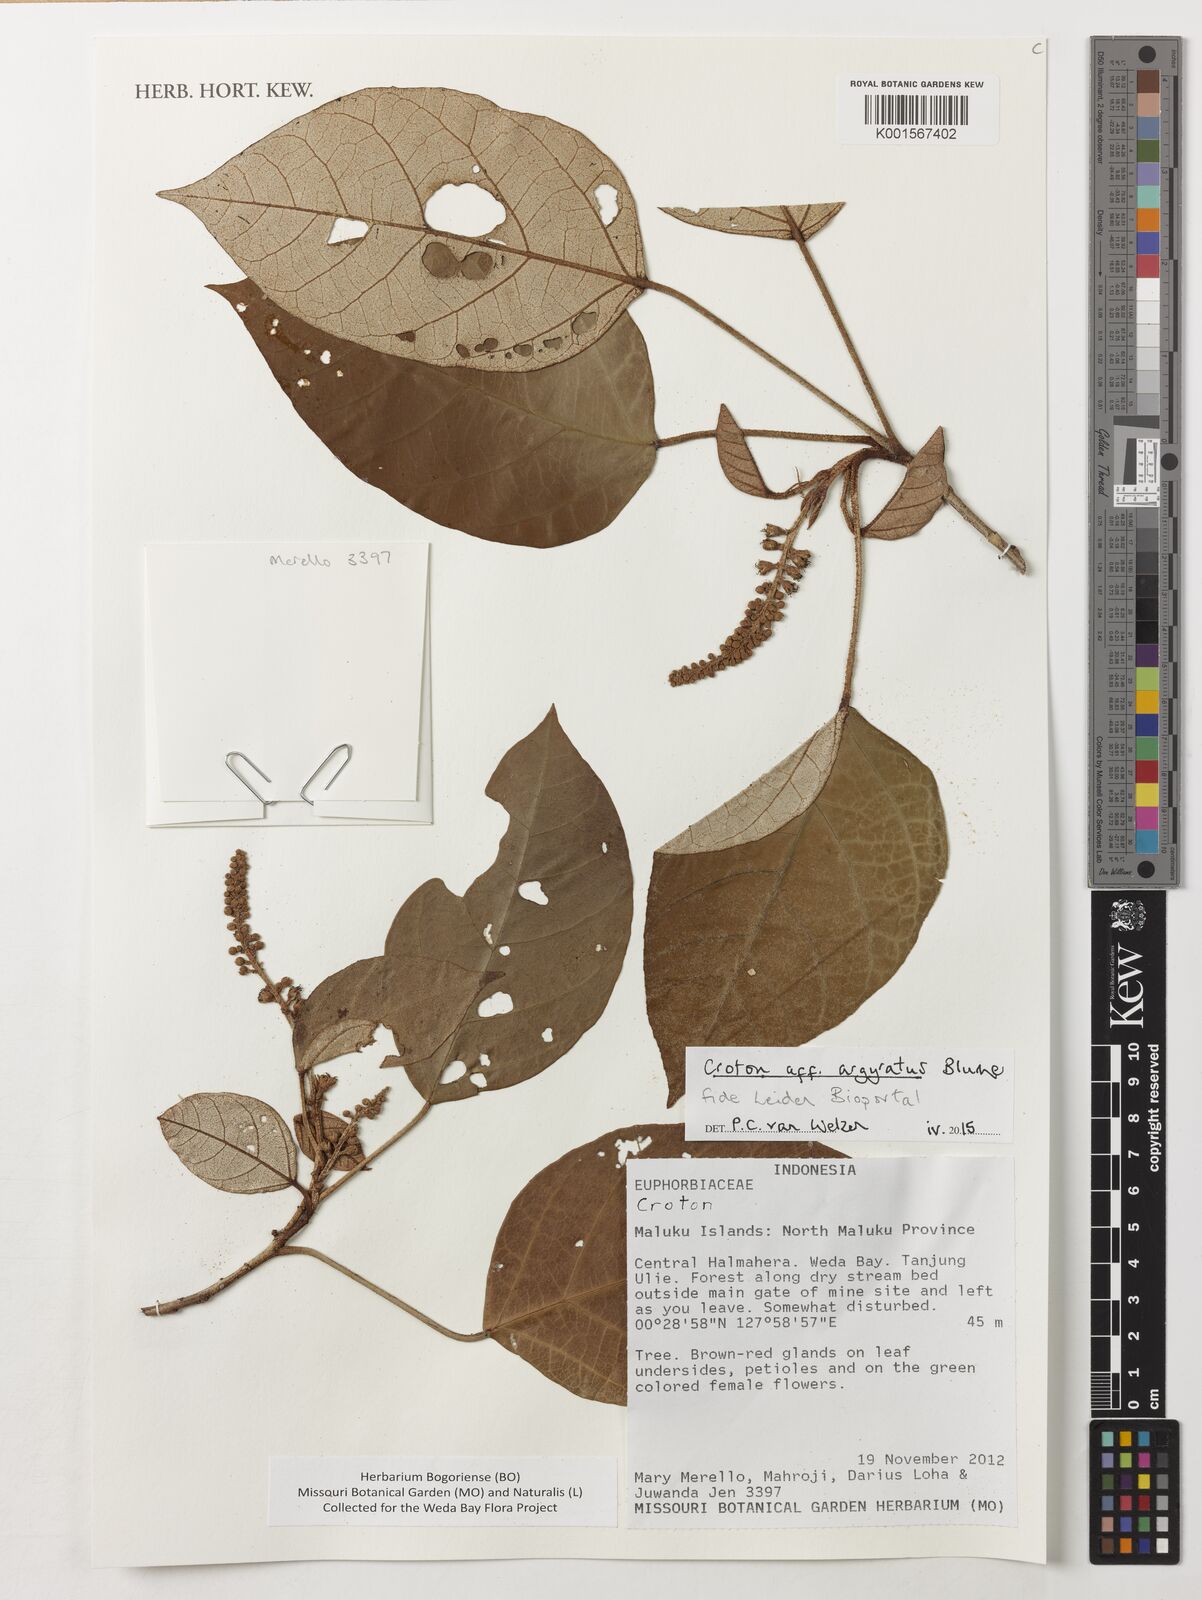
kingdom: Plantae
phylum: Tracheophyta
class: Magnoliopsida
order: Malpighiales
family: Euphorbiaceae
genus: Croton
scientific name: Croton argyratus
